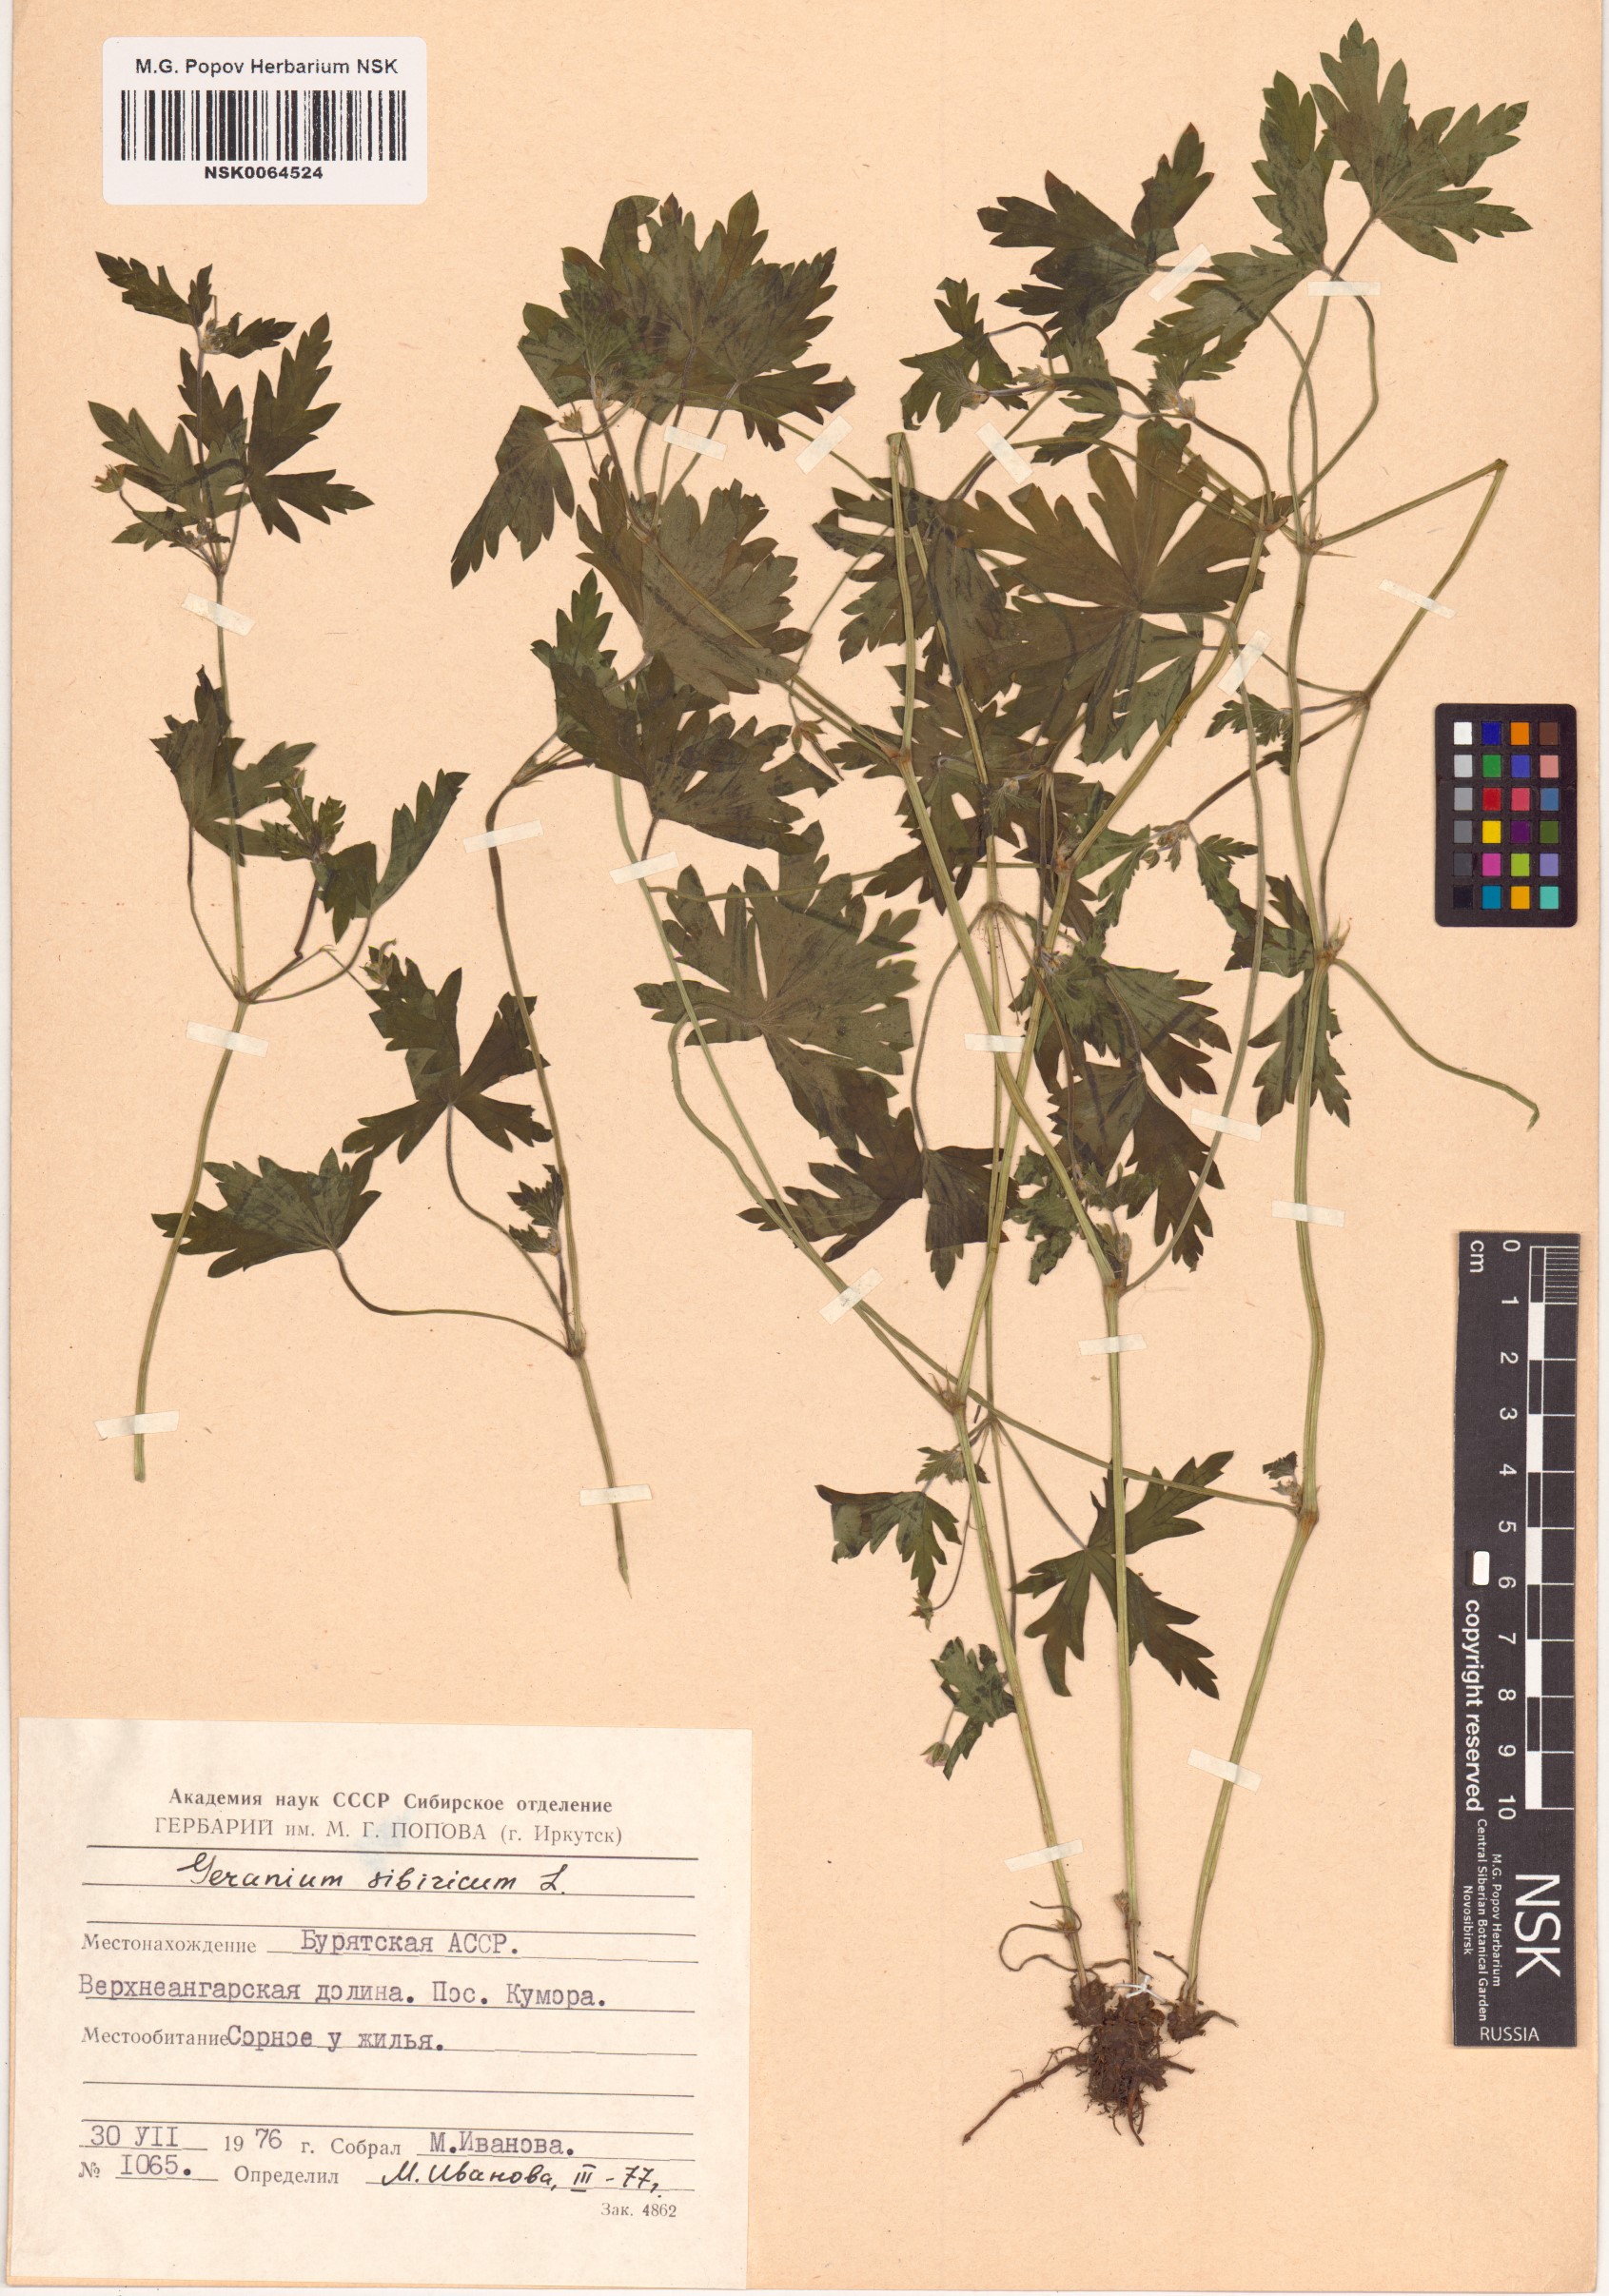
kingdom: Plantae
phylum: Tracheophyta
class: Magnoliopsida
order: Geraniales
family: Geraniaceae
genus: Geranium
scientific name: Geranium sibiricum
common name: Siberian crane's-bill
